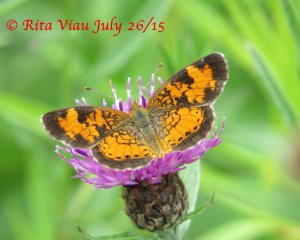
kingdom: Animalia
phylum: Arthropoda
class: Insecta
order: Lepidoptera
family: Nymphalidae
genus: Phyciodes
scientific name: Phyciodes tharos
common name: Northern Crescent
